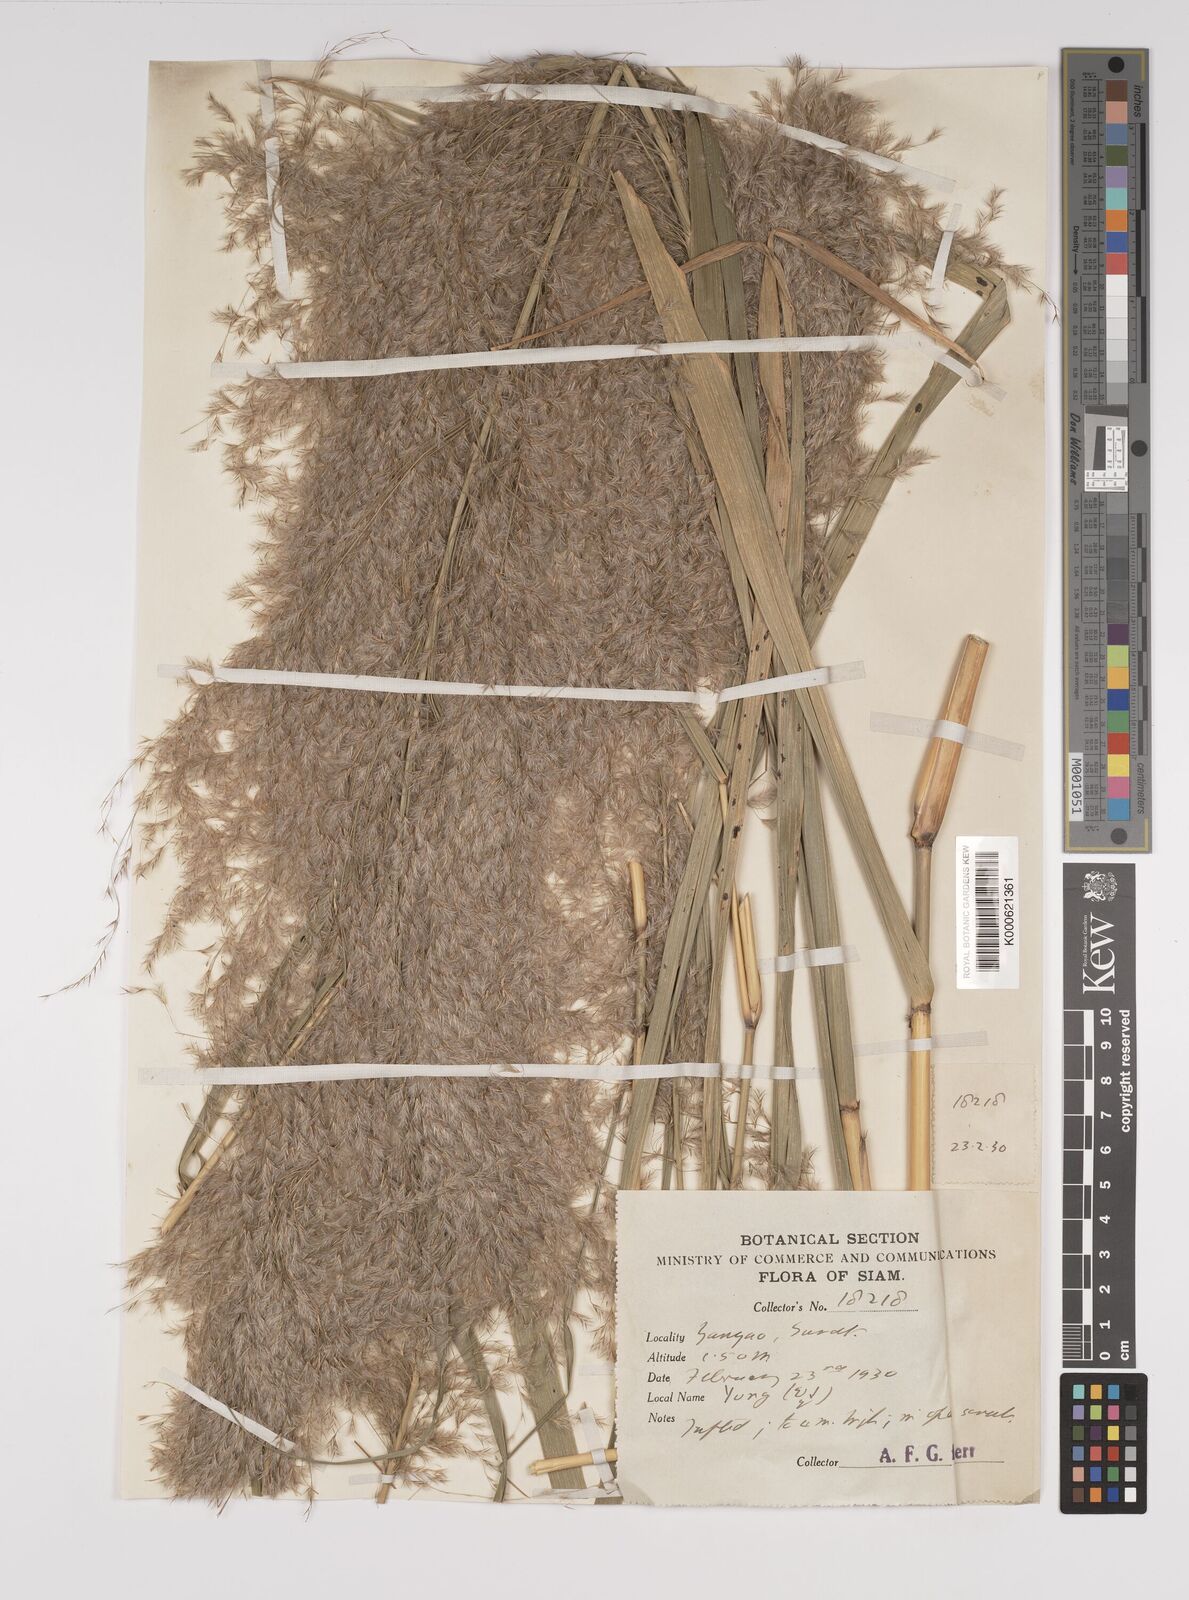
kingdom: Plantae
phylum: Tracheophyta
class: Liliopsida
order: Poales
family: Poaceae
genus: Neyraudia
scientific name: Neyraudia reynaudiana
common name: Silkreed
